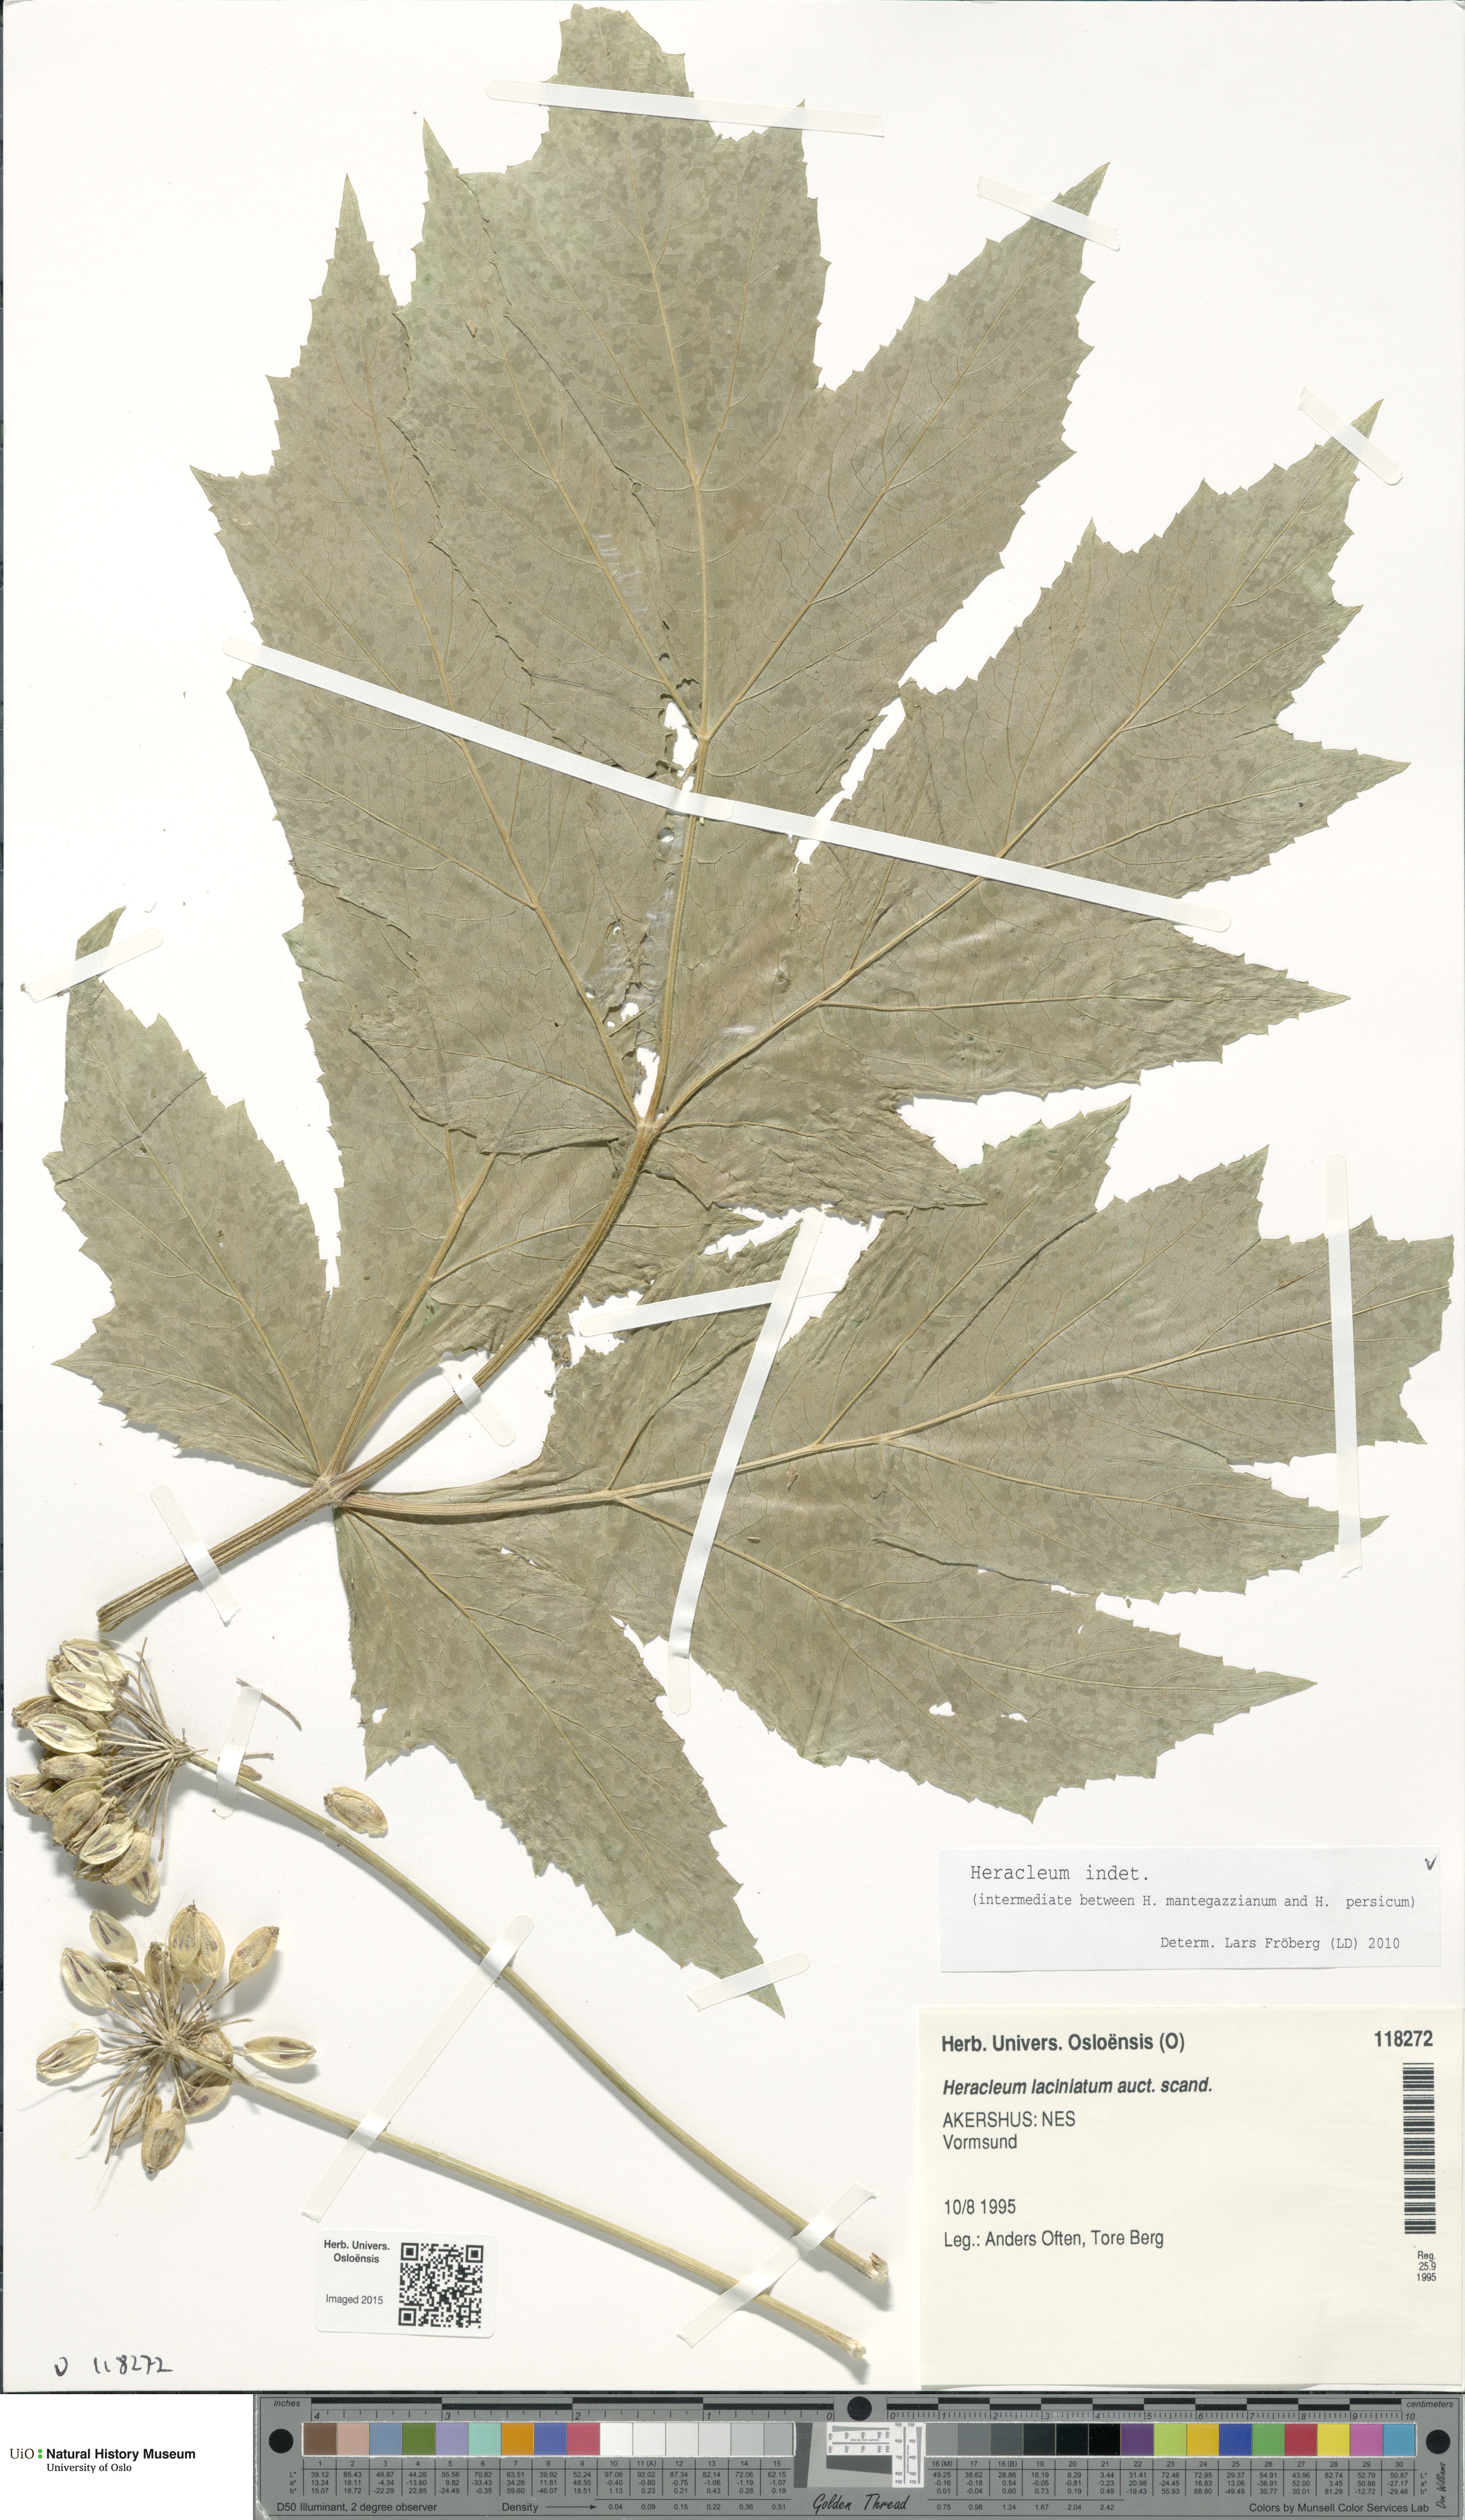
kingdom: Plantae
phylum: Tracheophyta
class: Magnoliopsida
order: Apiales
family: Apiaceae
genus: Heracleum
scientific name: Heracleum
